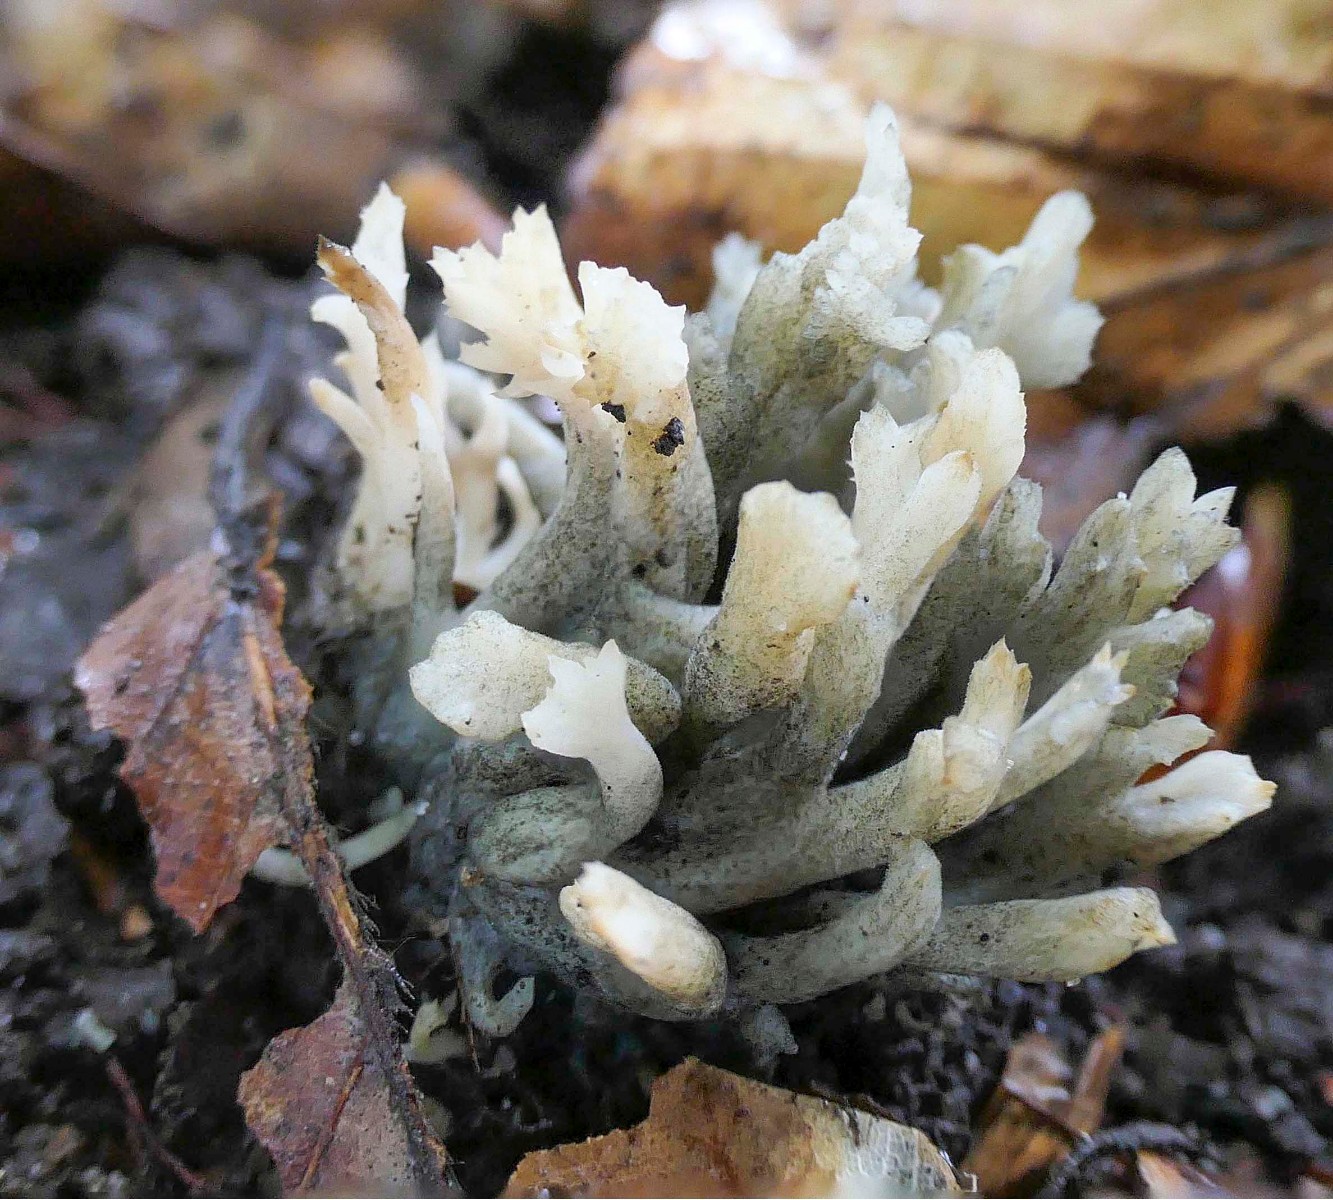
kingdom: Fungi
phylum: Ascomycota
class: Sordariomycetes
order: Sordariales
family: Helminthosphaeriaceae
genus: Helminthosphaeria
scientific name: Helminthosphaeria clavariarum
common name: trold-svampesnyltekerne
